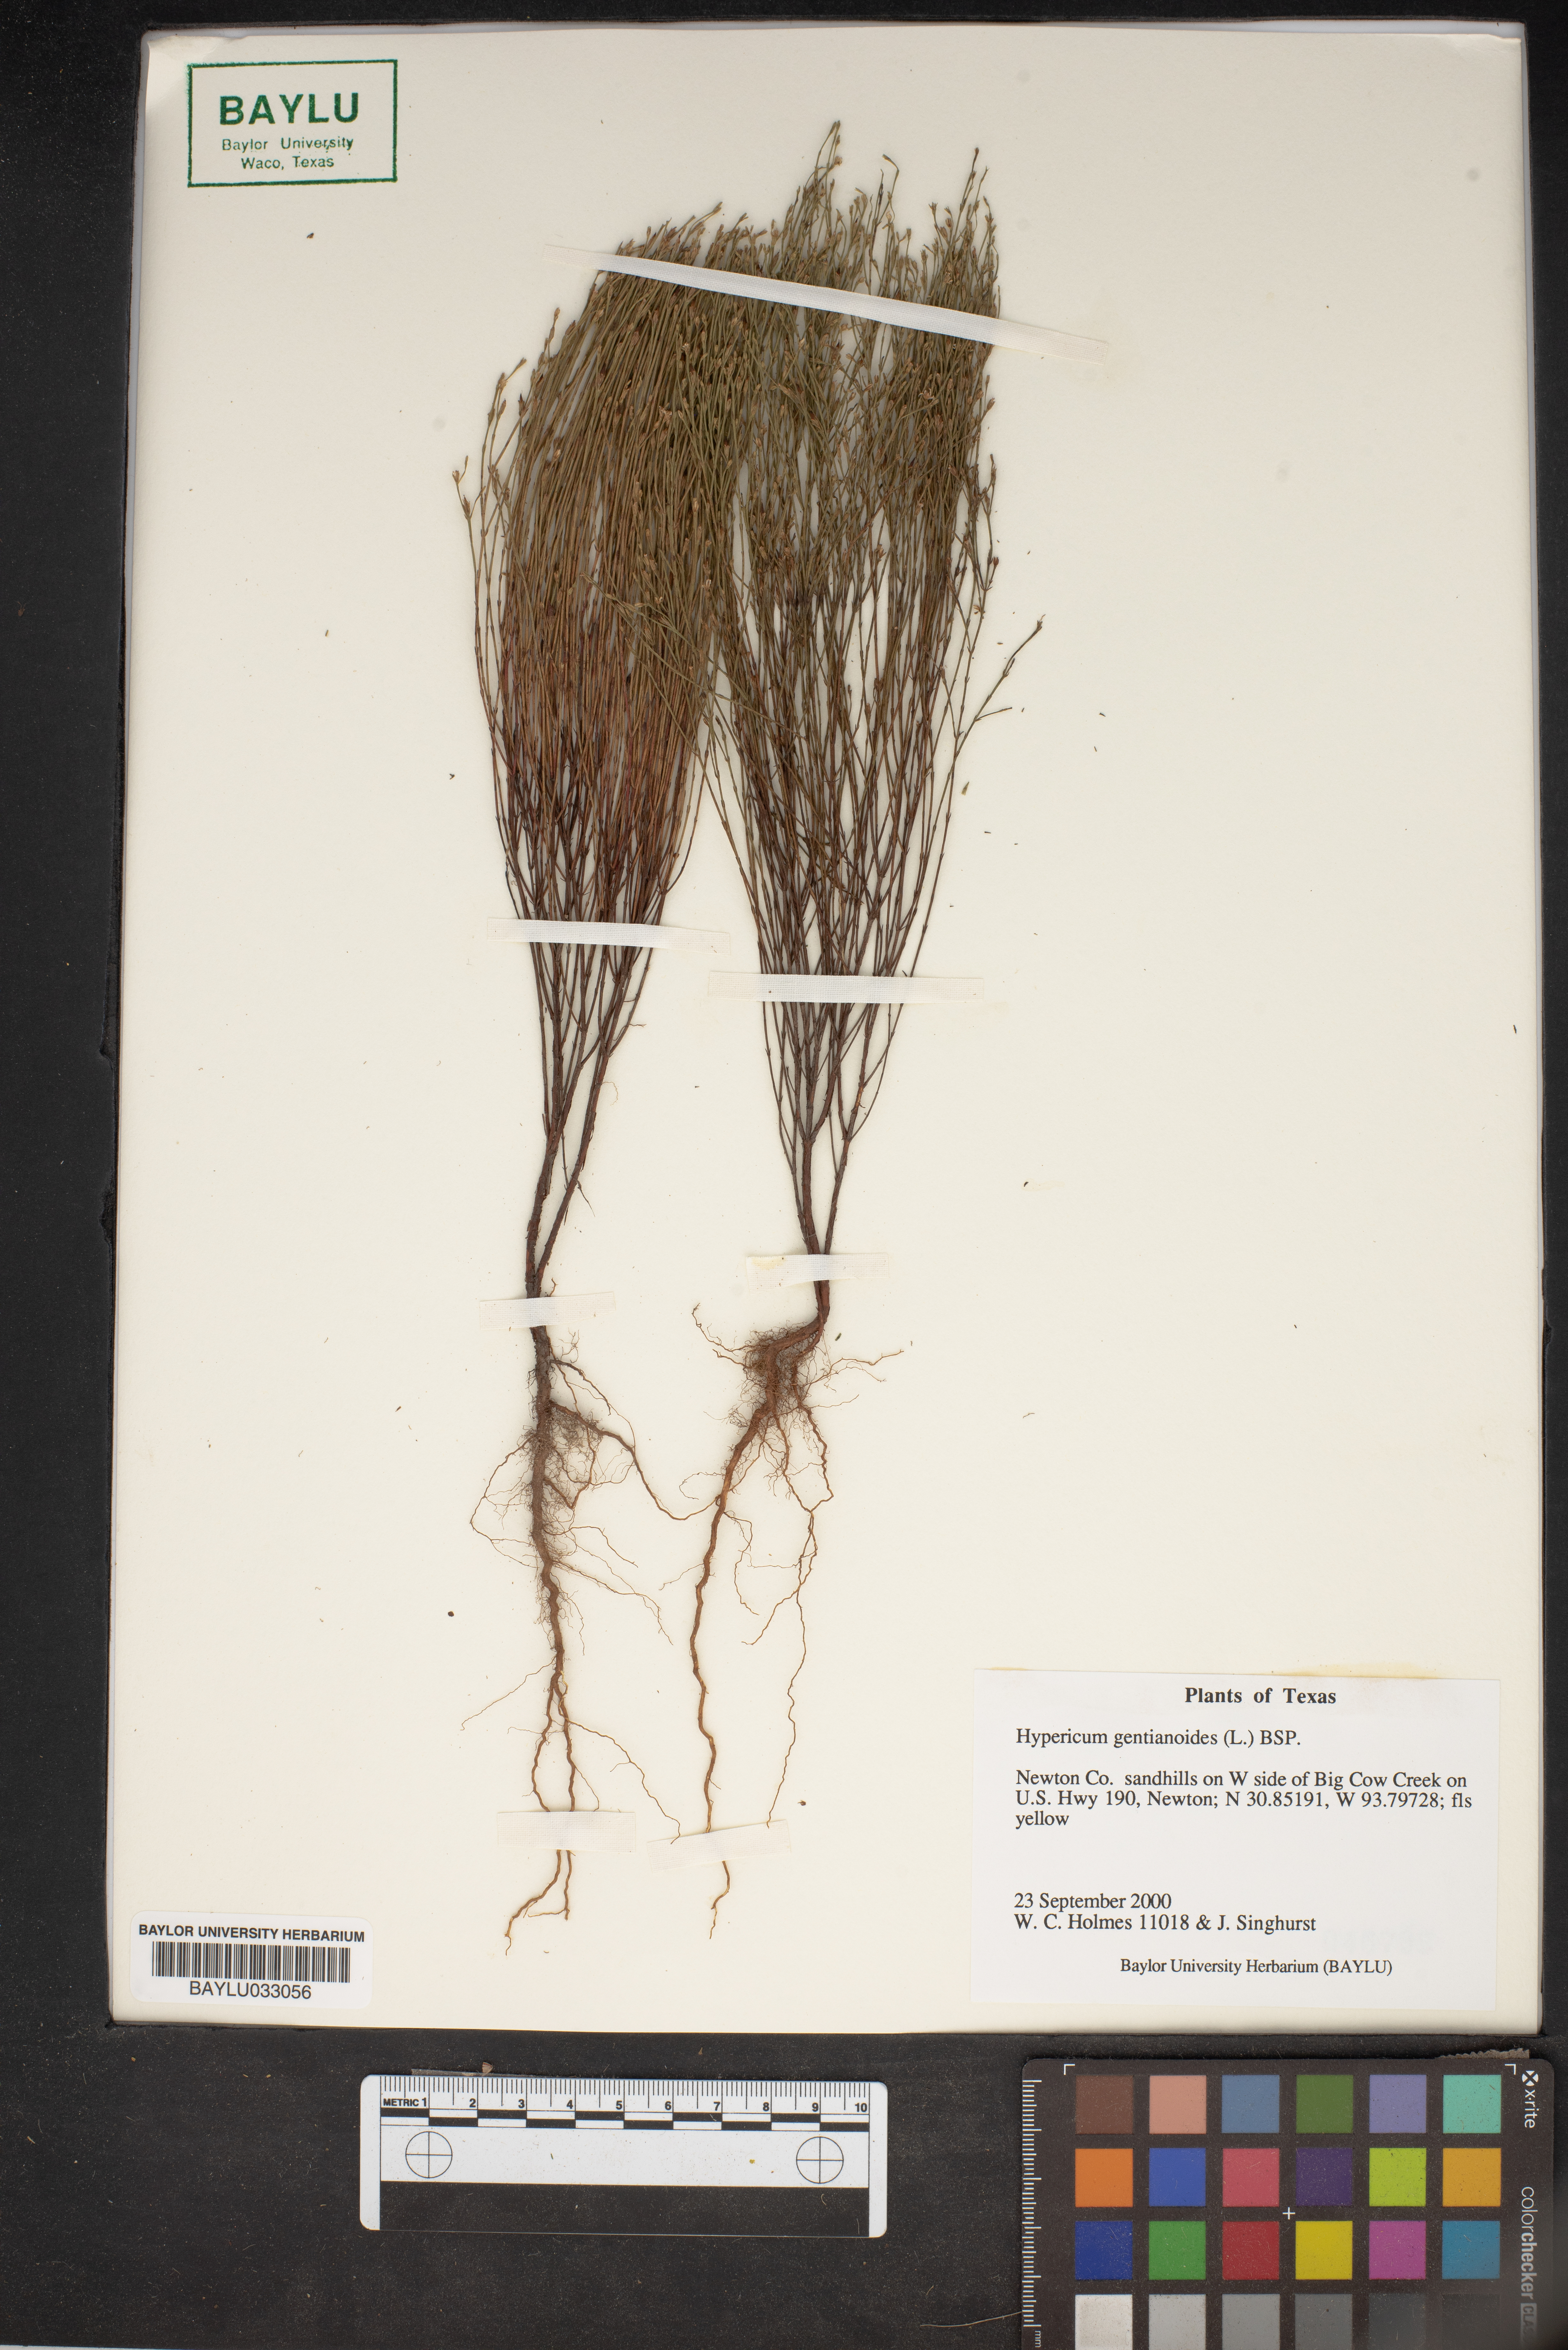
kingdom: Plantae
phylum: Tracheophyta
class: Magnoliopsida
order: Malpighiales
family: Hypericaceae
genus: Hypericum
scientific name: Hypericum gentianoides
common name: Gentian-leaved st. john's-wort
